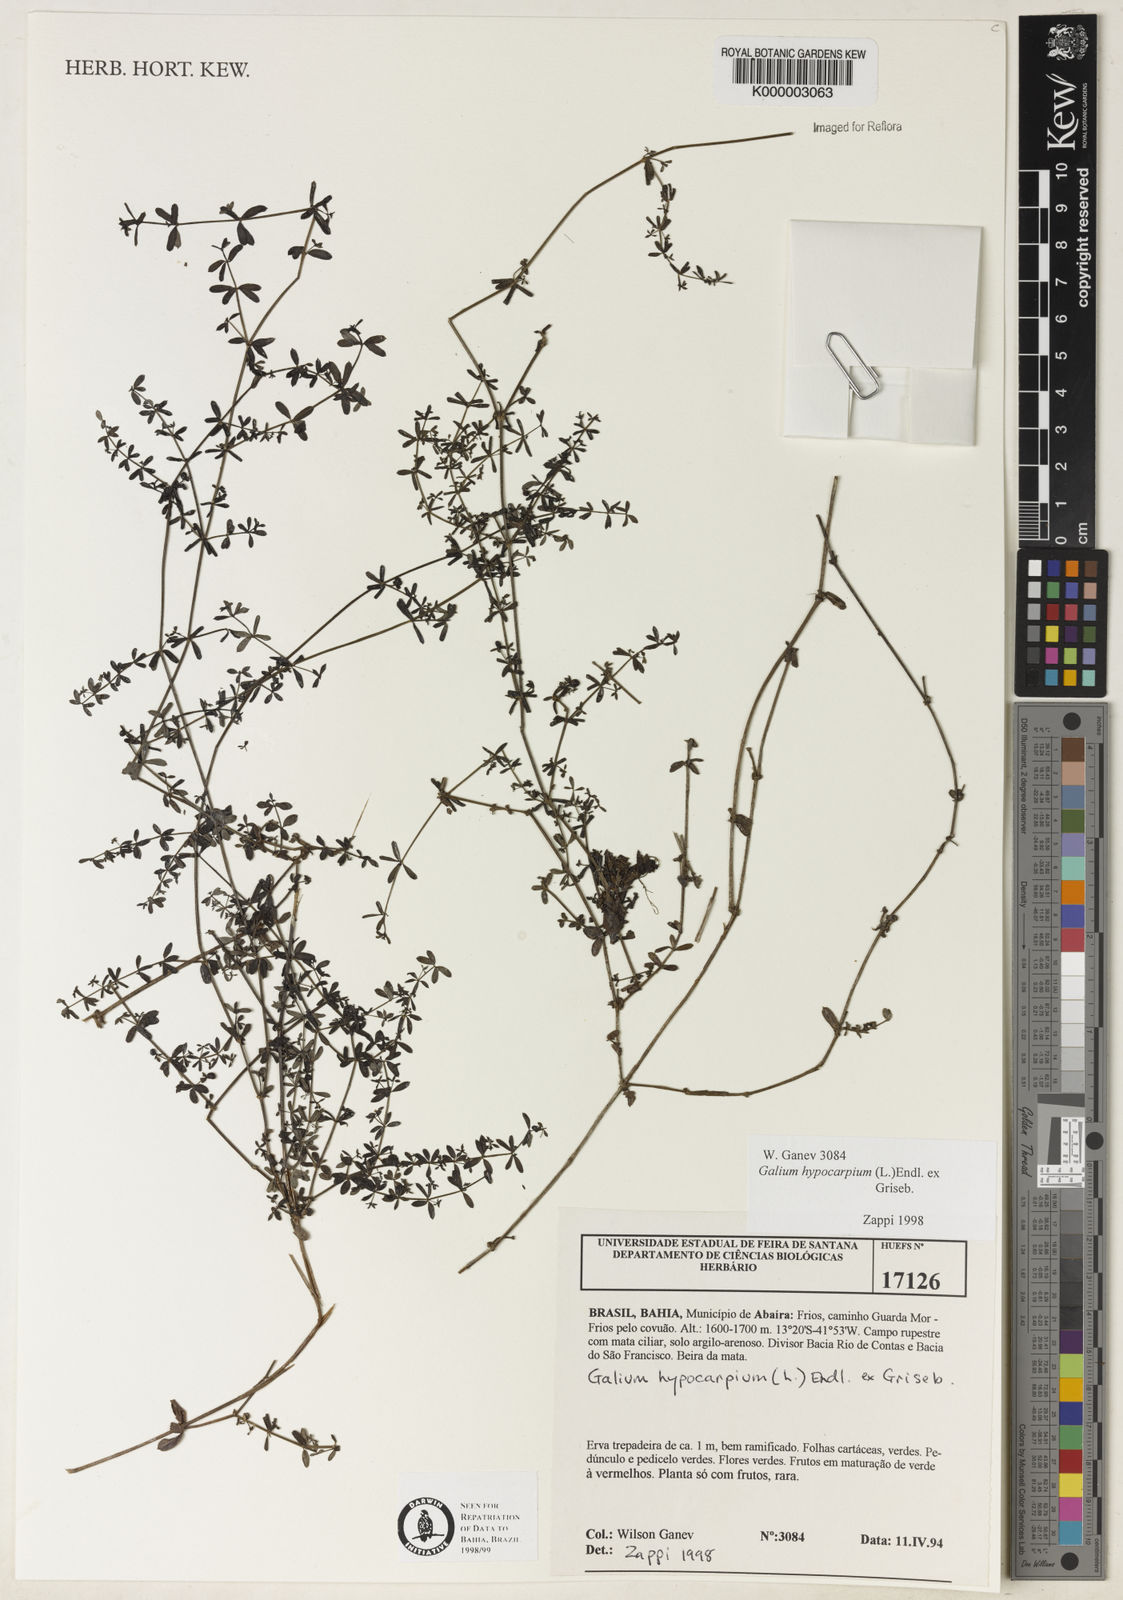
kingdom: Plantae
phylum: Tracheophyta
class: Magnoliopsida
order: Gentianales
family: Rubiaceae
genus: Galium
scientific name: Galium hypocarpium
